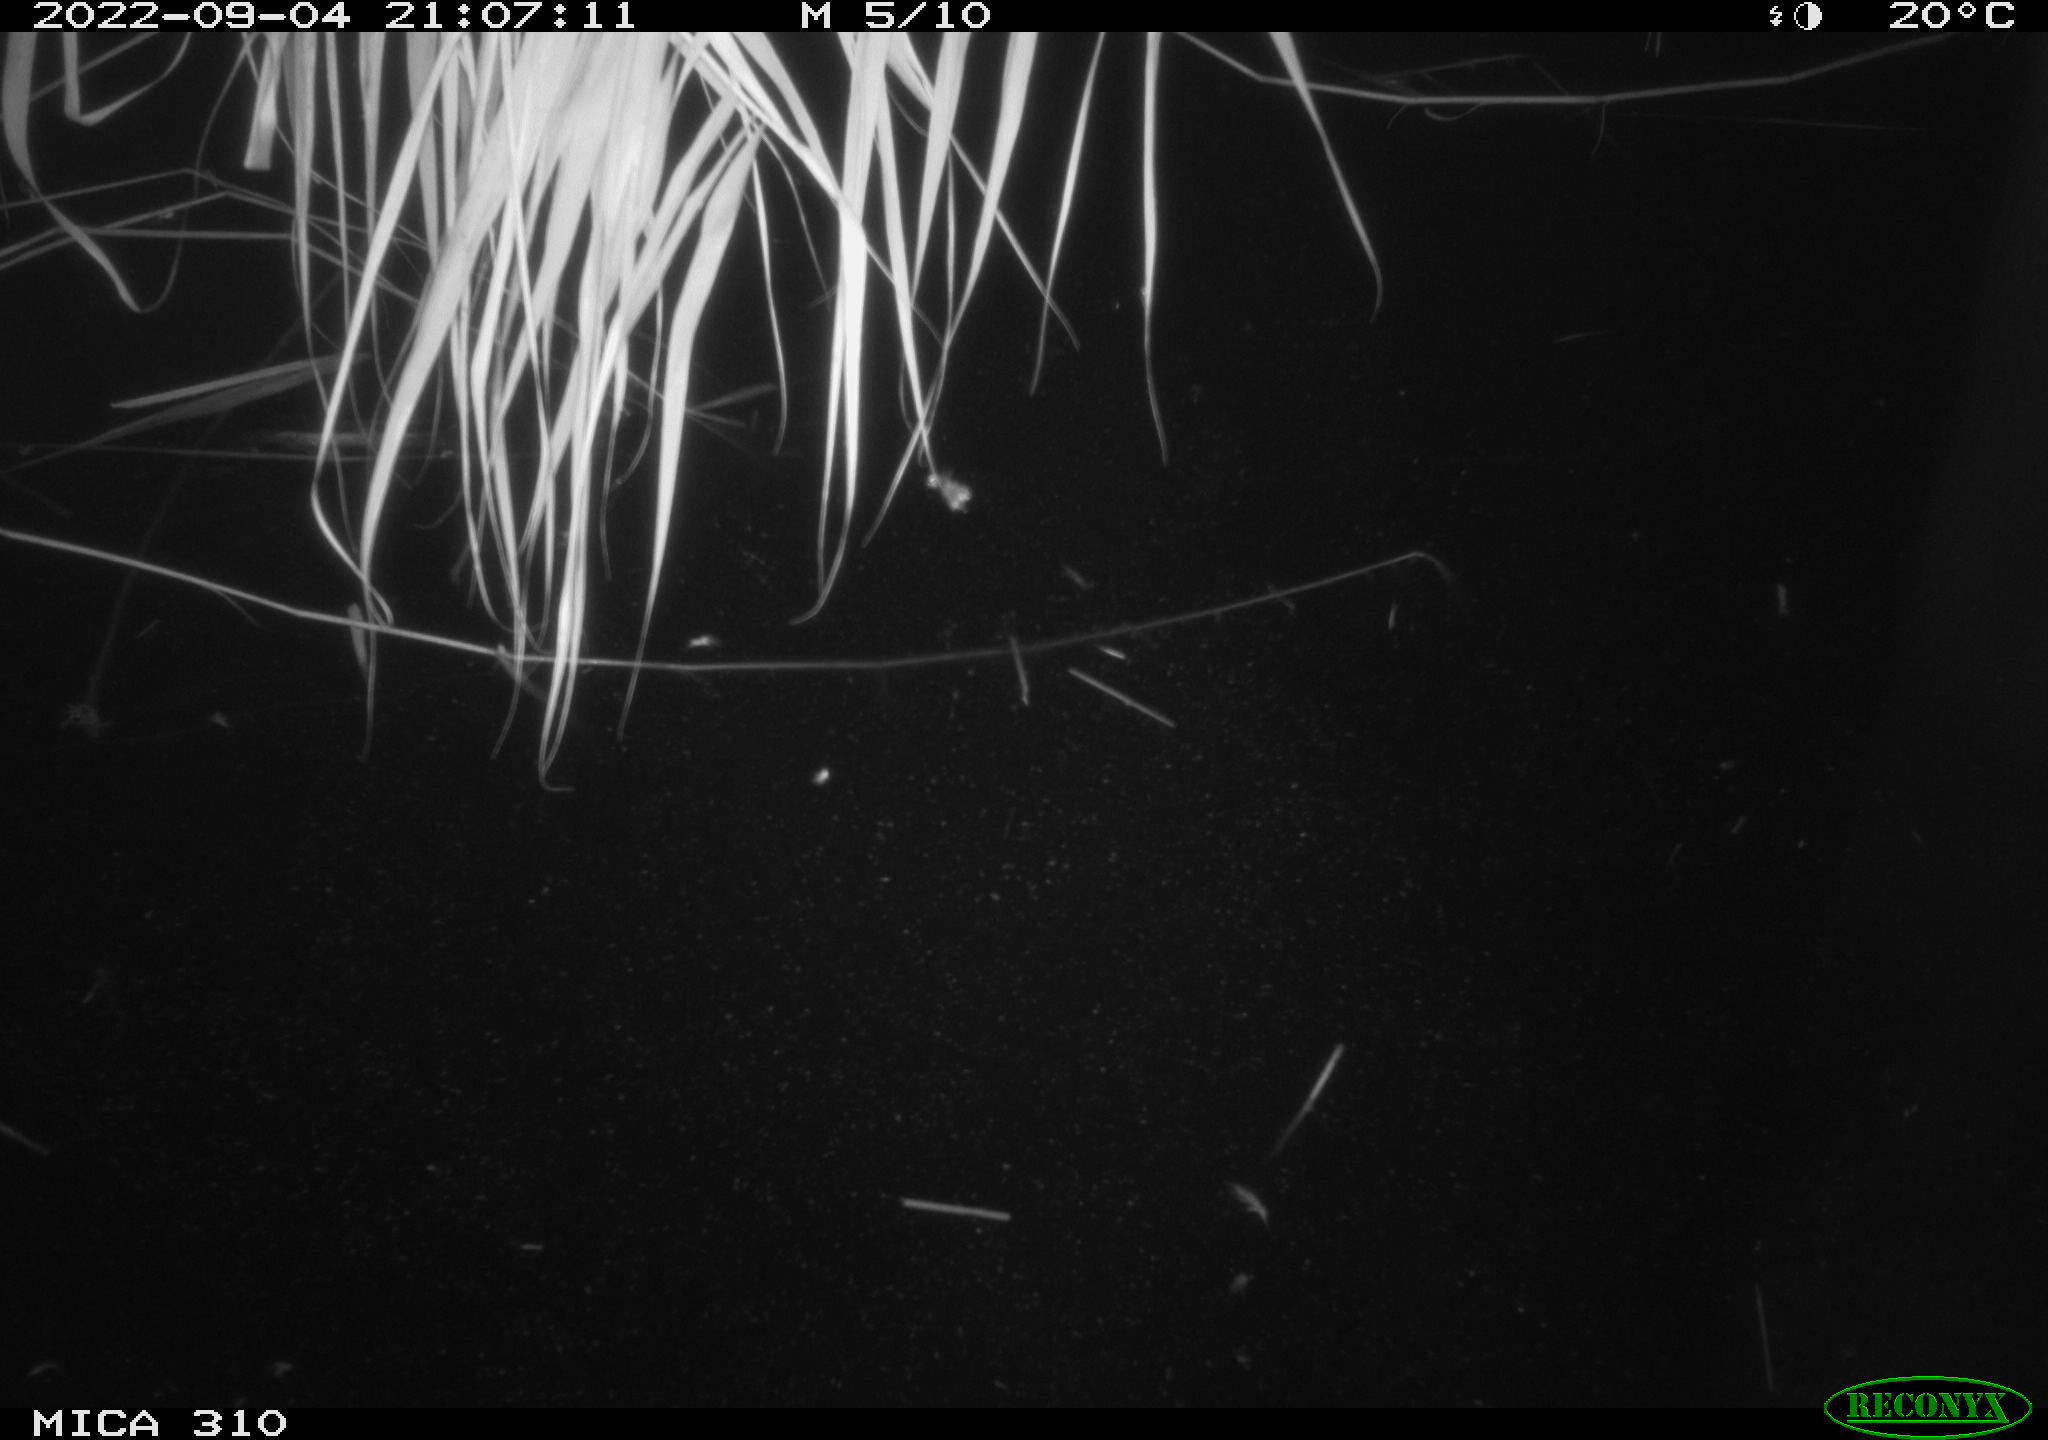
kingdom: Animalia
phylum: Chordata
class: Aves
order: Anseriformes
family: Anatidae
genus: Anas
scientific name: Anas platyrhynchos
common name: Mallard
